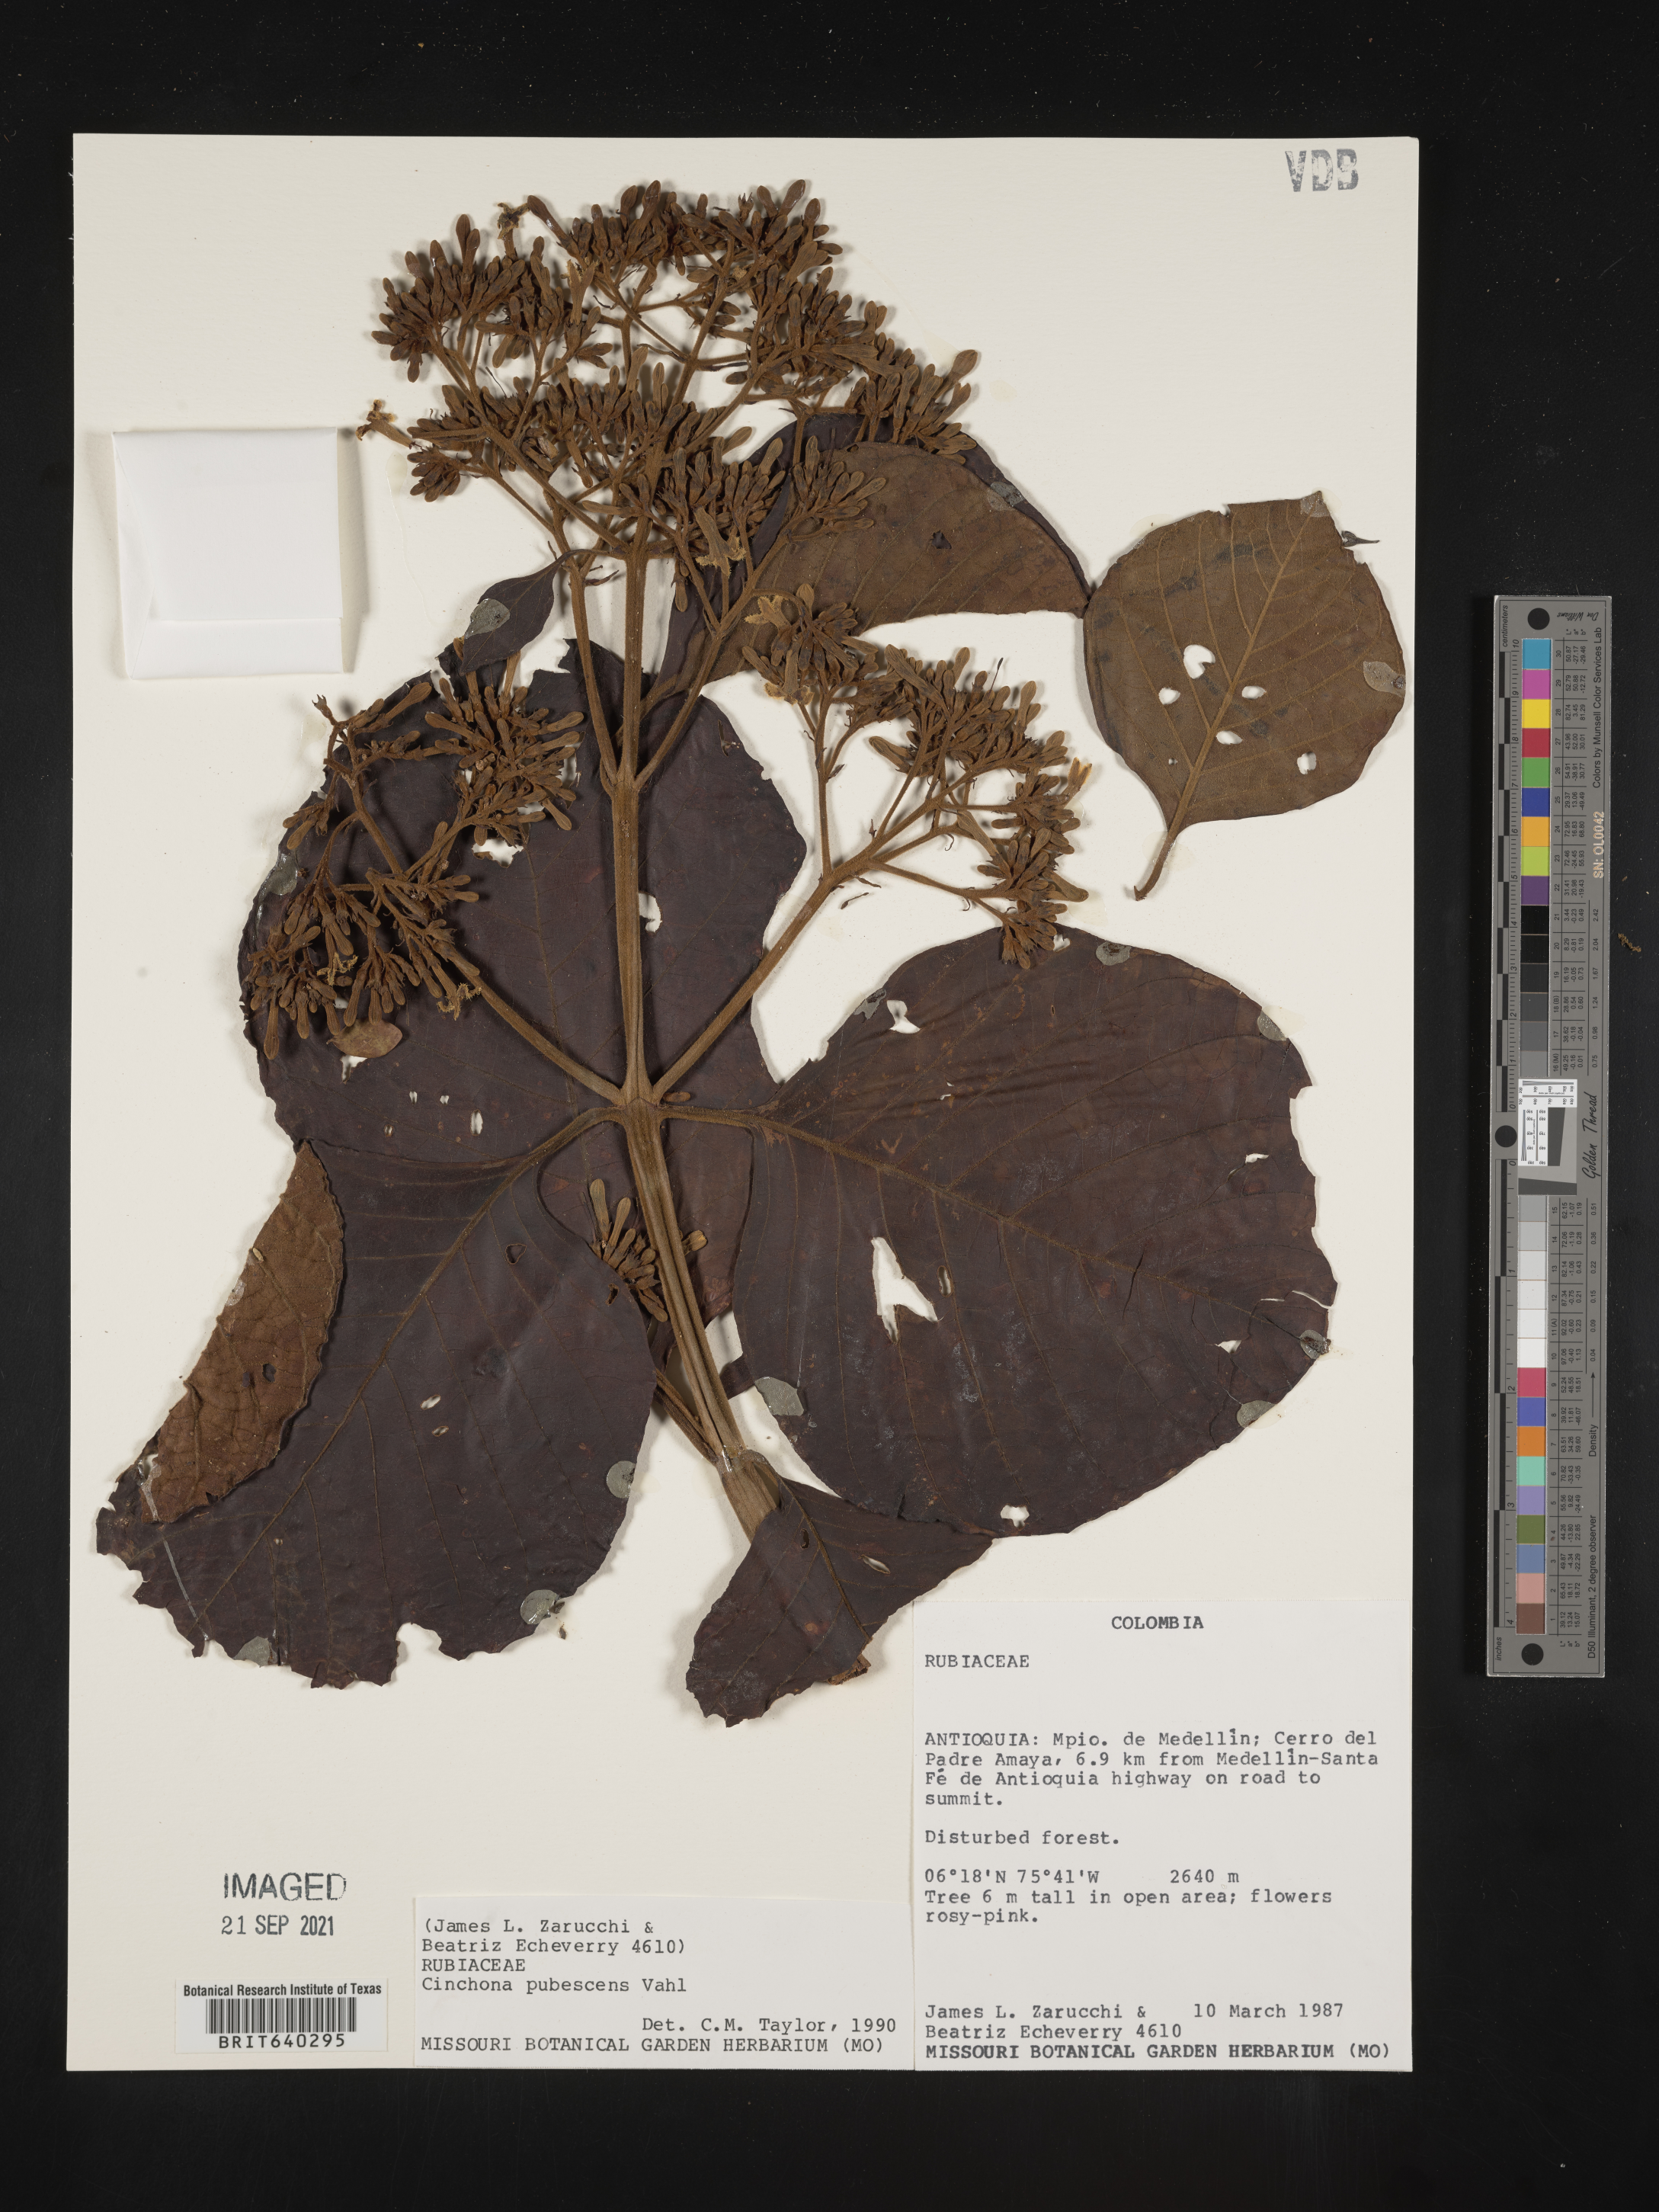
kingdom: Plantae
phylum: Tracheophyta
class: Magnoliopsida
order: Gentianales
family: Rubiaceae
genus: Chomelia
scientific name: Chomelia
